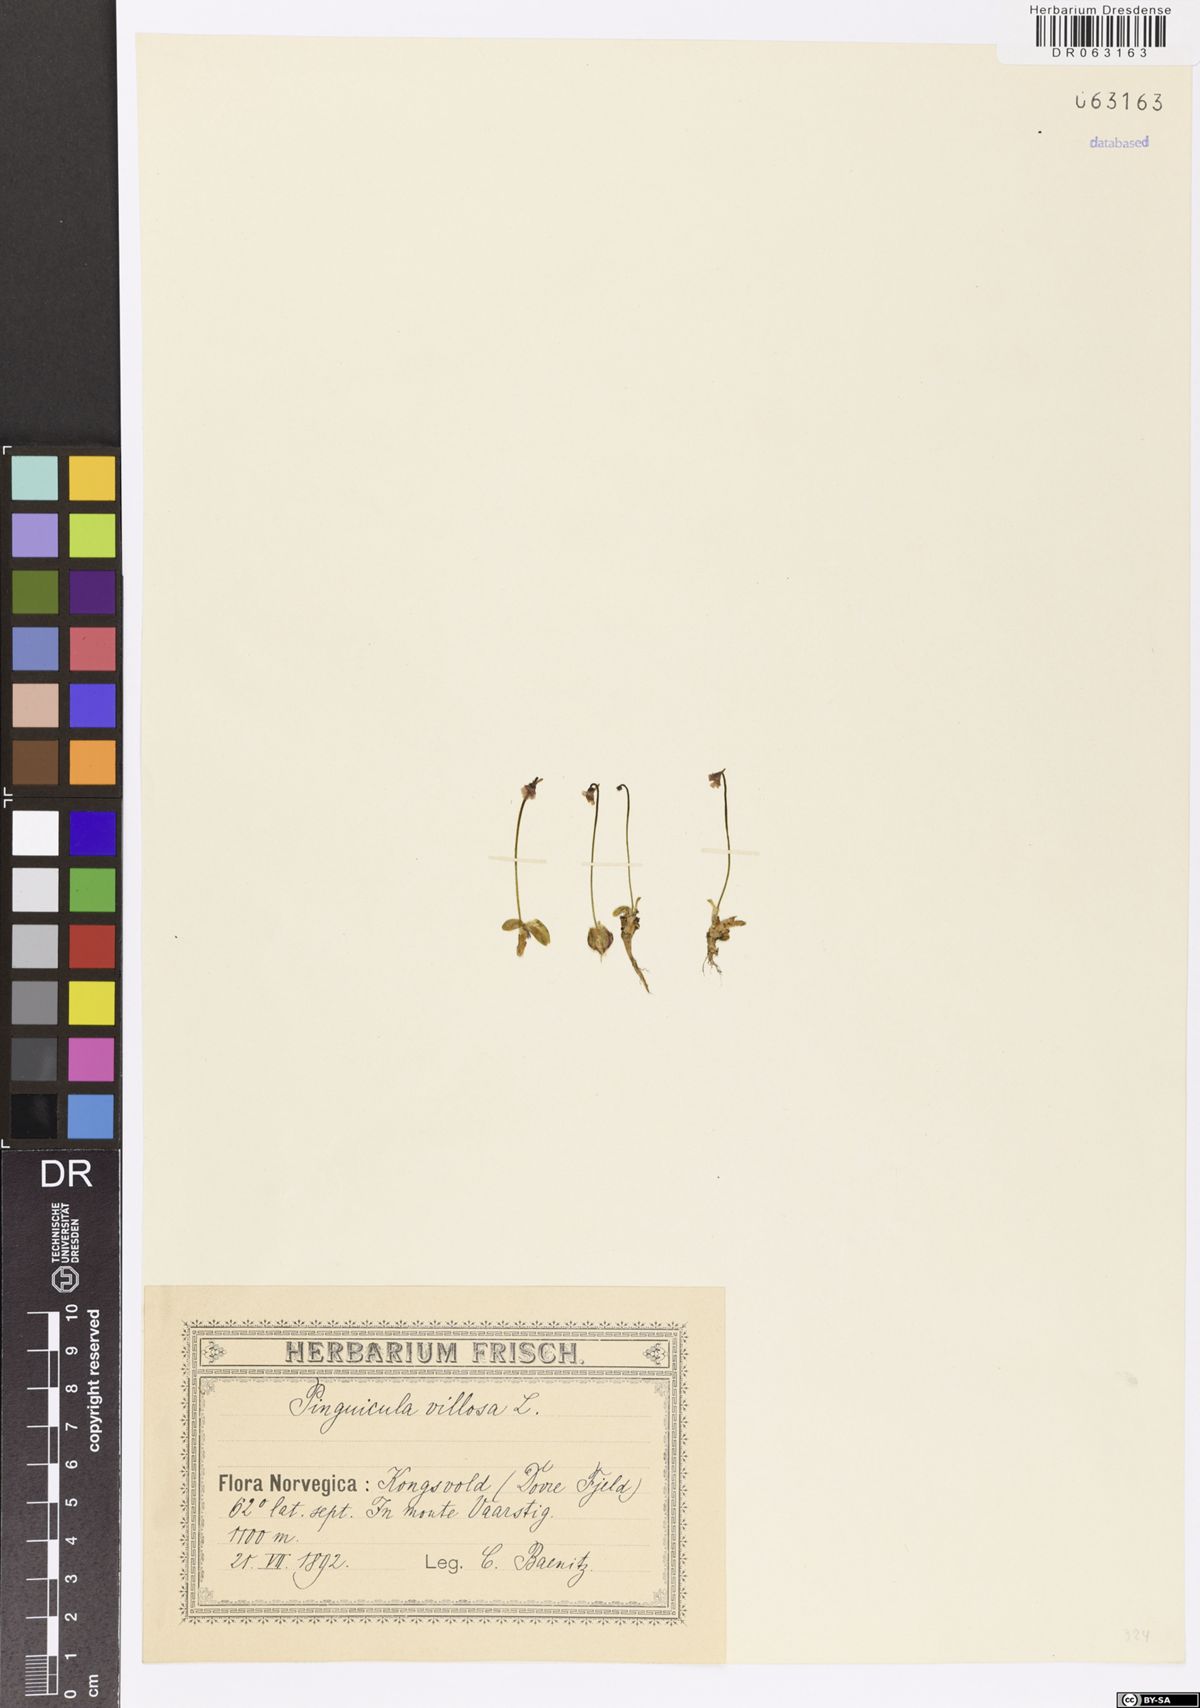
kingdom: Plantae
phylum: Tracheophyta
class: Magnoliopsida
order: Lamiales
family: Lentibulariaceae
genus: Pinguicula
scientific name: Pinguicula villosa
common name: Hairy butterwort
